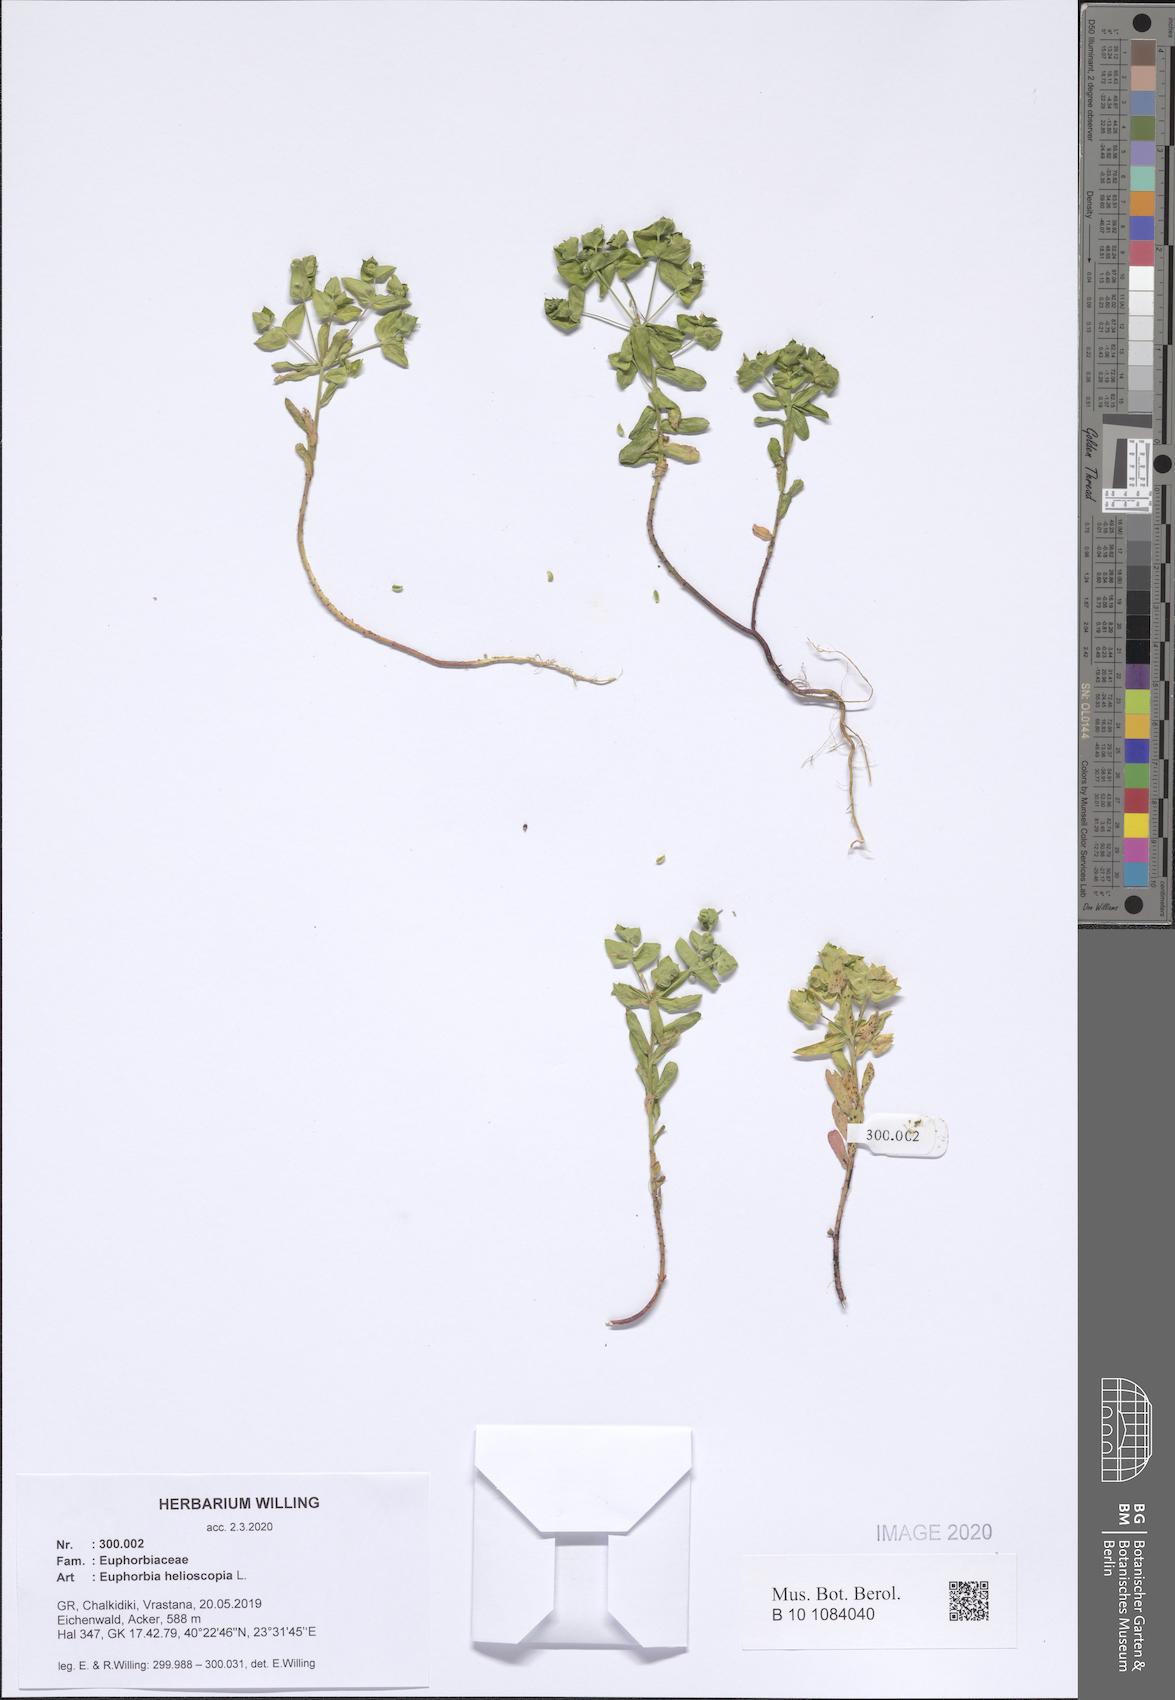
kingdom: Plantae
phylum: Tracheophyta
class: Magnoliopsida
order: Malpighiales
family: Euphorbiaceae
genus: Euphorbia
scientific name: Euphorbia helioscopia
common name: Sun spurge
